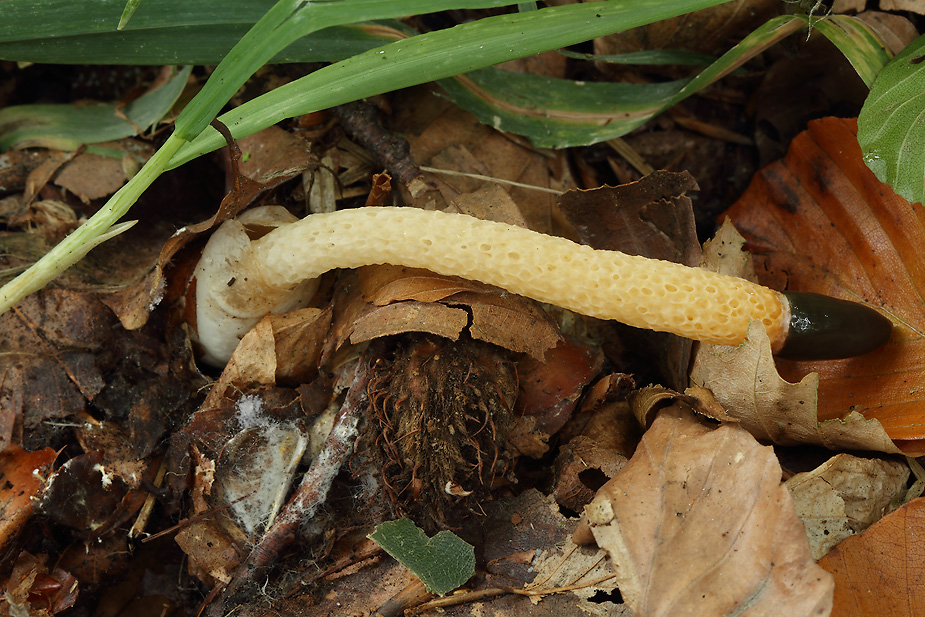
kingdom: Fungi
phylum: Basidiomycota
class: Agaricomycetes
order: Phallales
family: Phallaceae
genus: Mutinus
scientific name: Mutinus caninus
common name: hunde-stinksvamp
